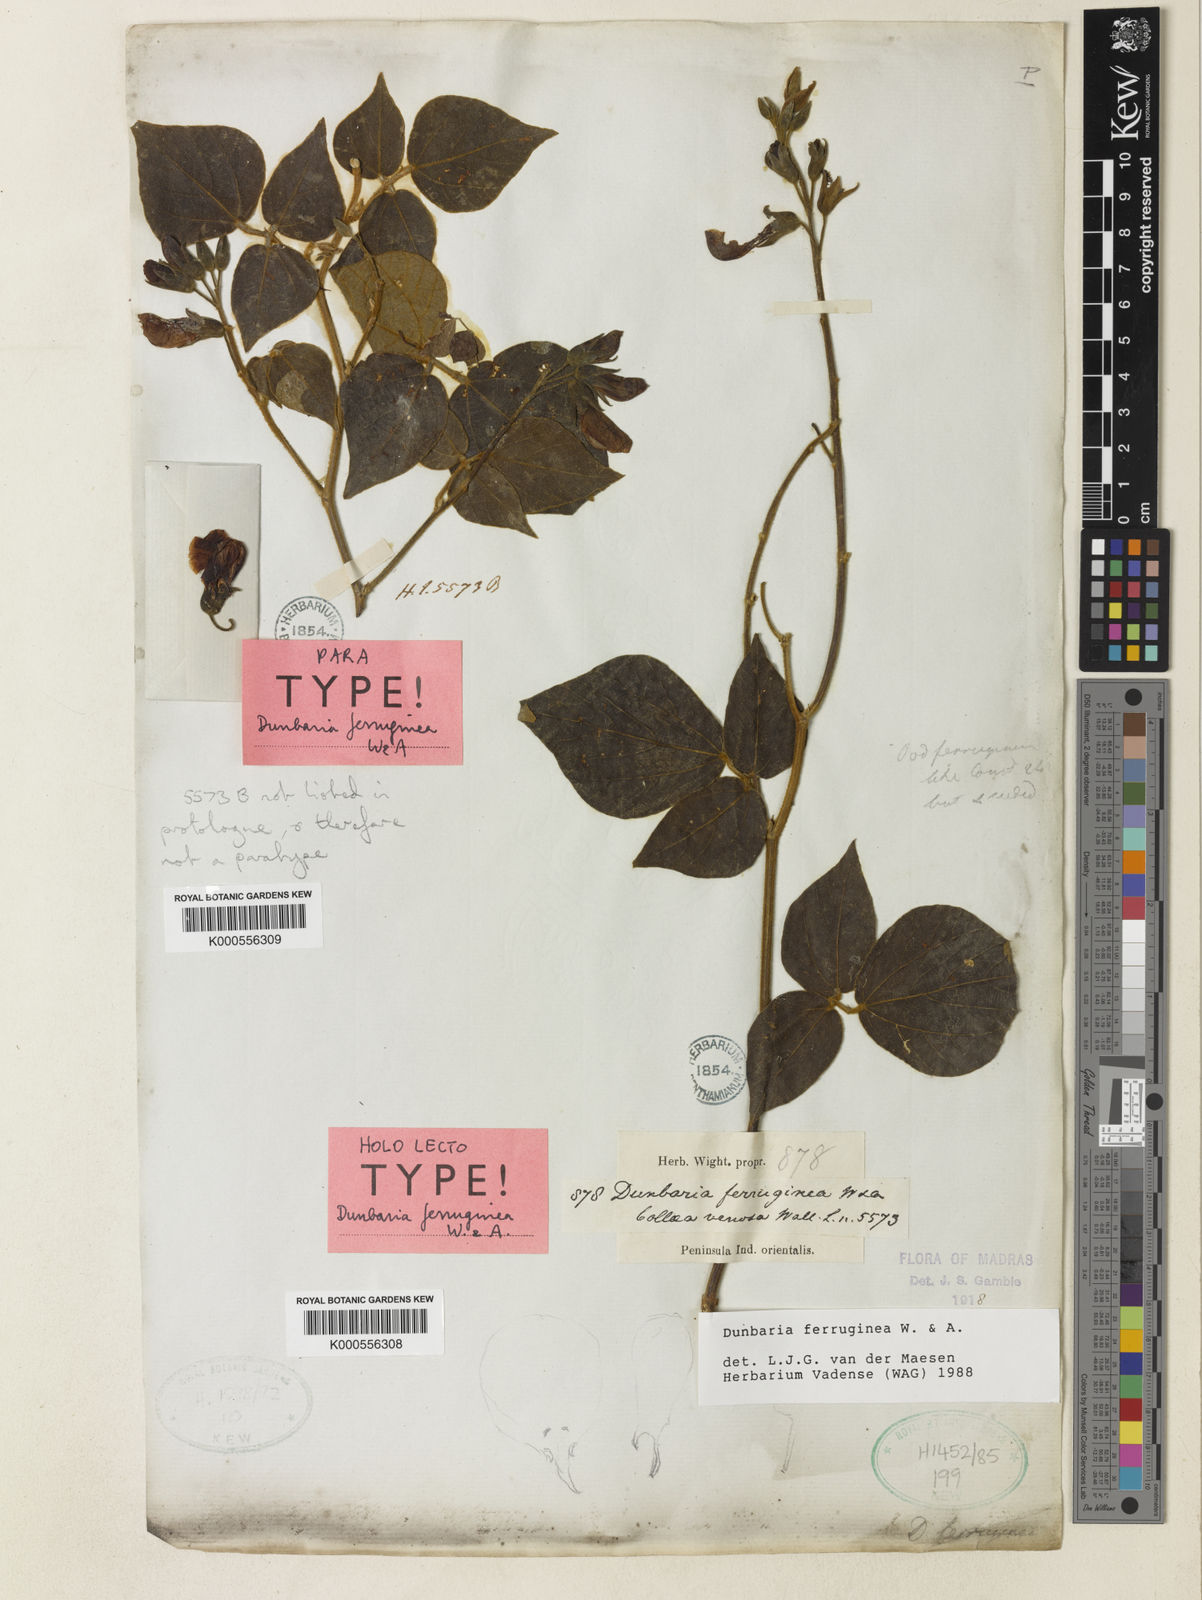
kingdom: Plantae
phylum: Tracheophyta
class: Magnoliopsida
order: Fabales
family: Fabaceae
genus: Dunbaria
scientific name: Dunbaria ferruginea
